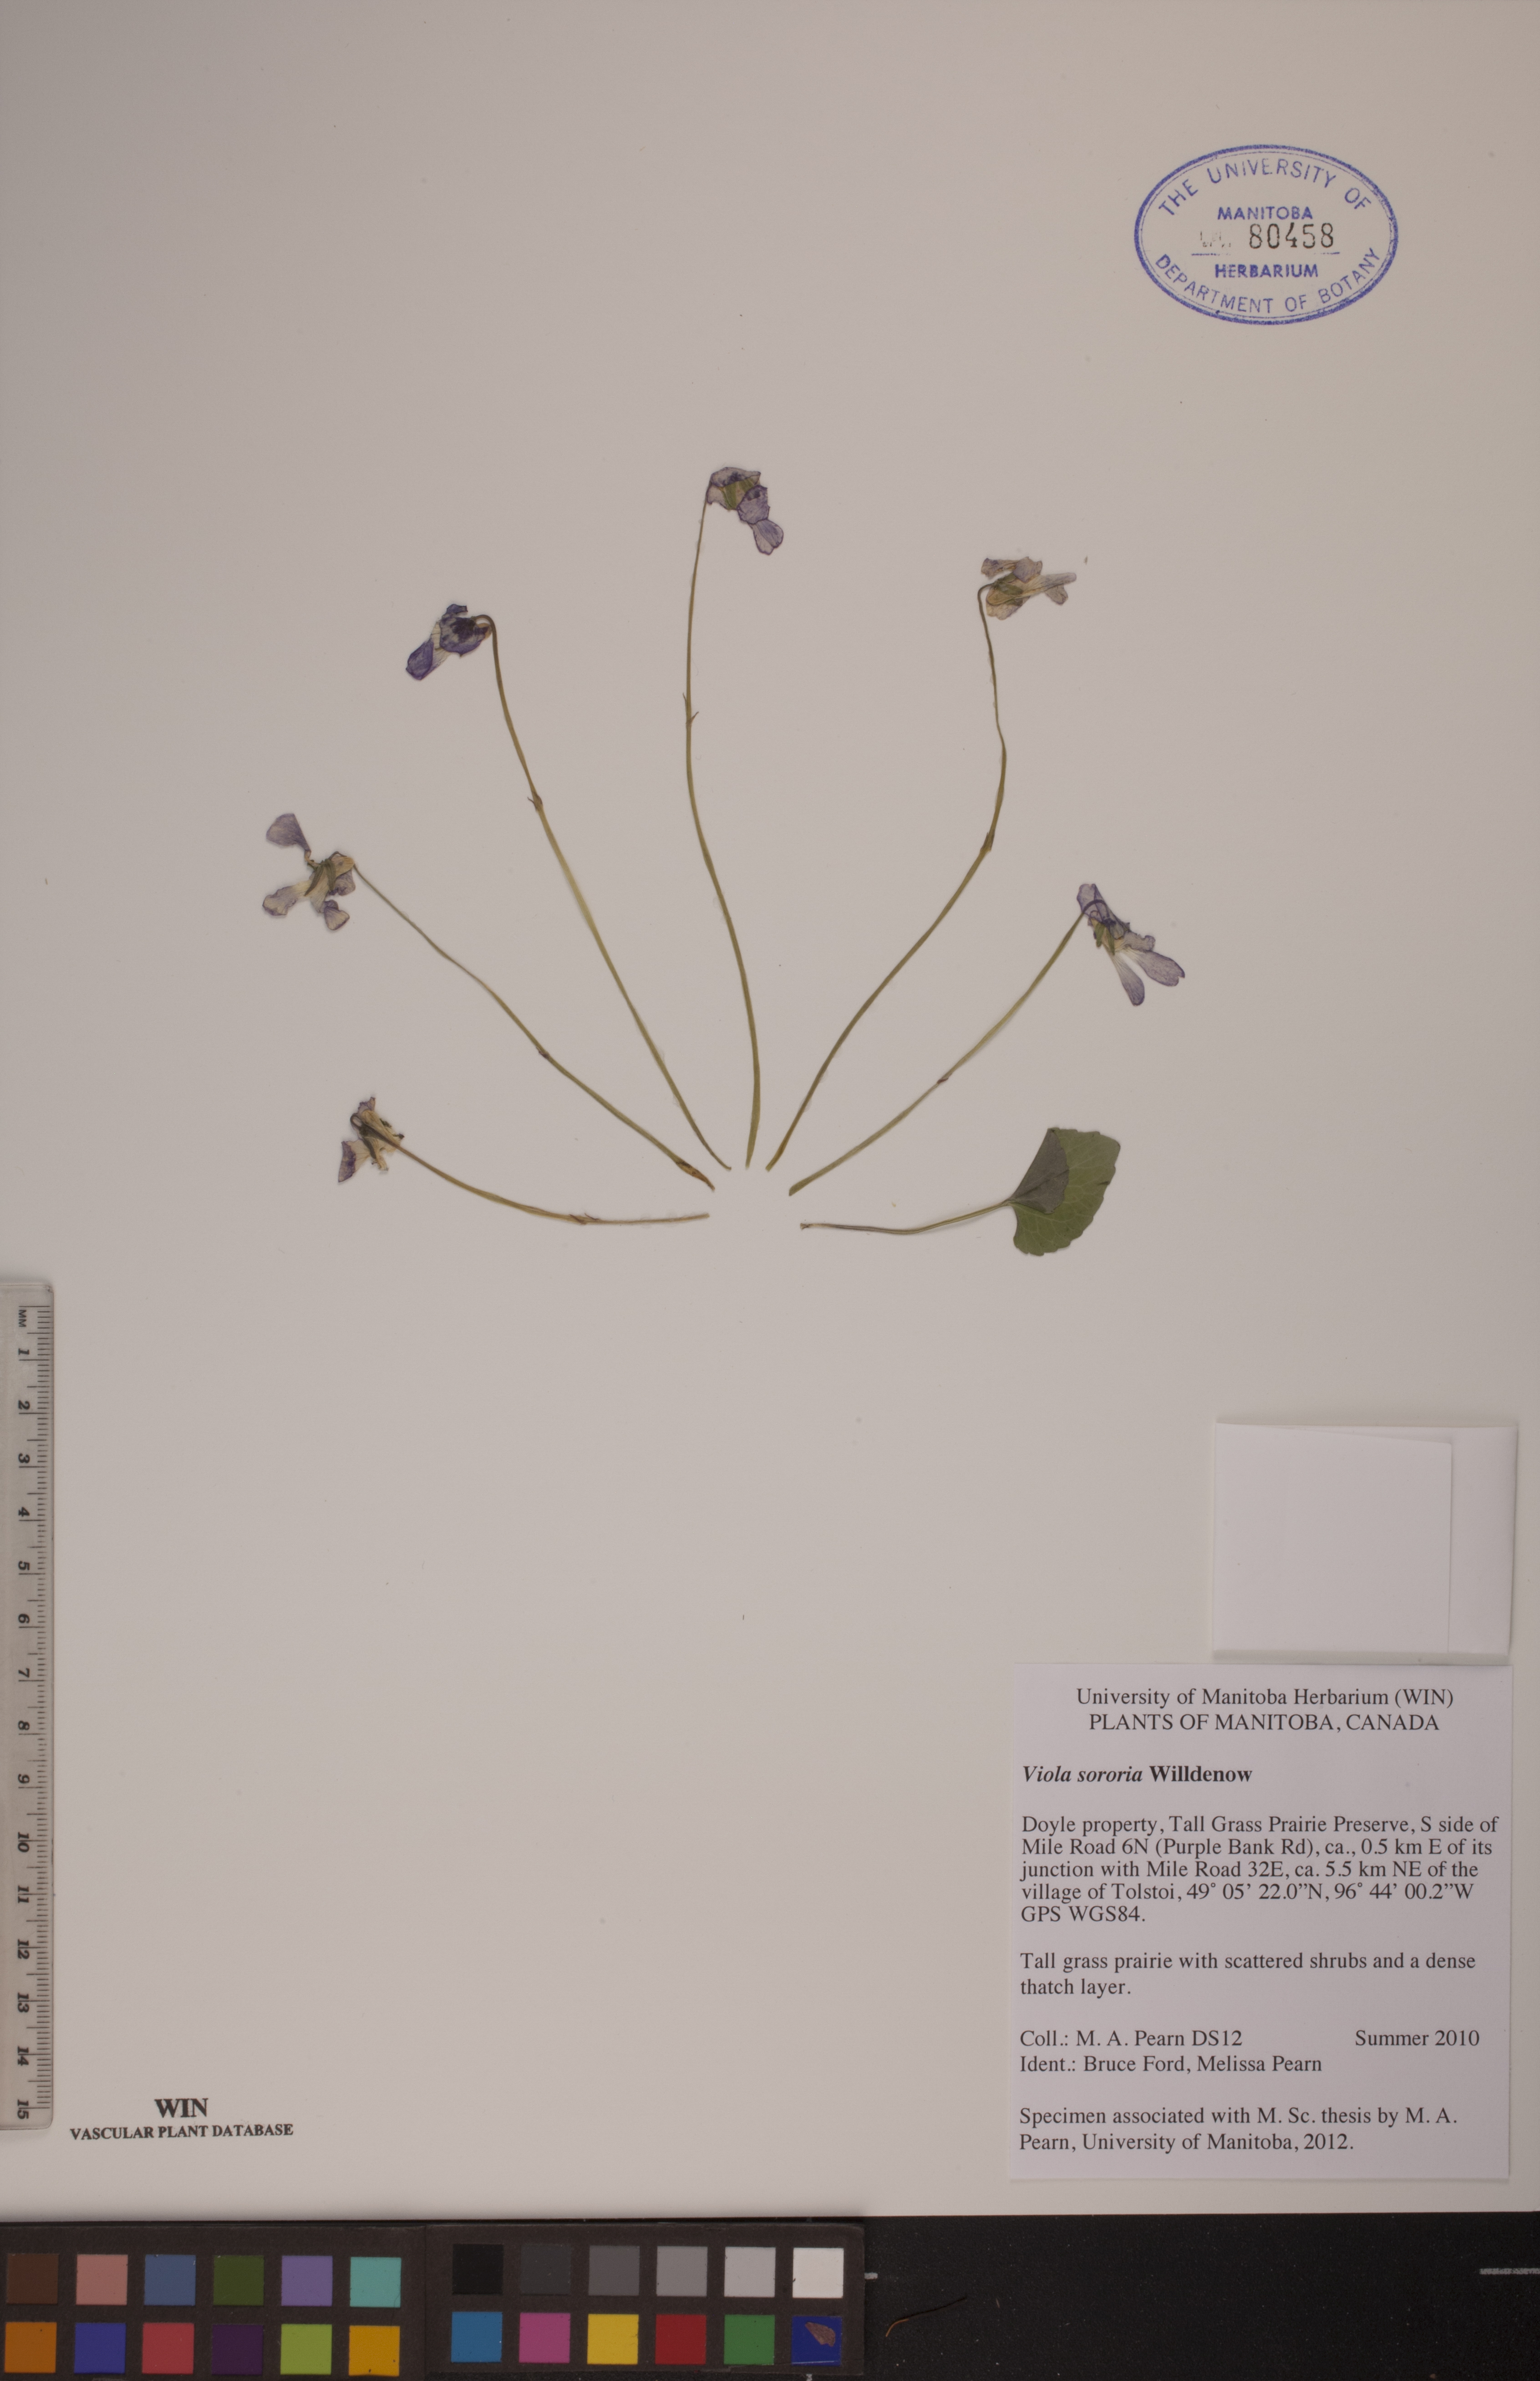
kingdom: Plantae
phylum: Tracheophyta
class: Magnoliopsida
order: Malpighiales
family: Violaceae
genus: Viola
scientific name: Viola sororia
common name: Dooryard violet
